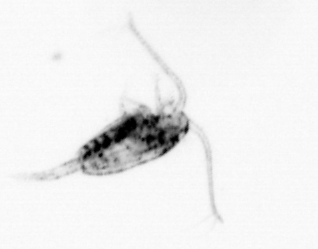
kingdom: Animalia
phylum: Arthropoda
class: Copepoda
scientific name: Copepoda
